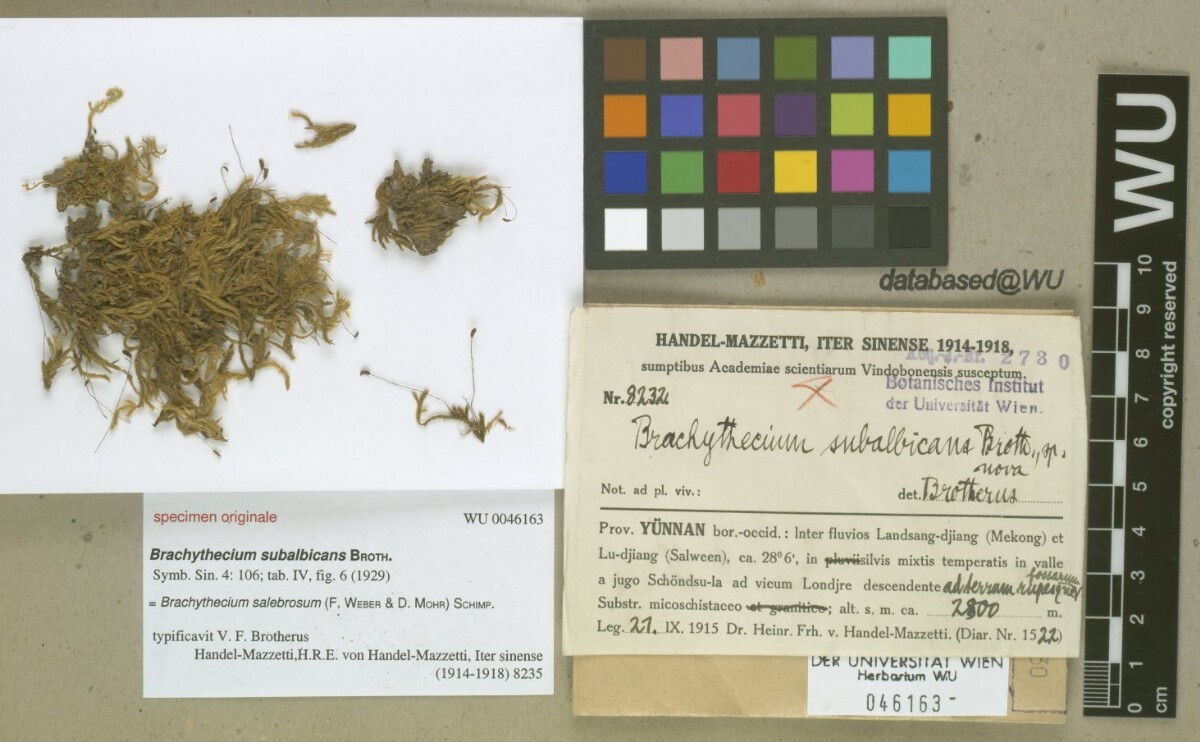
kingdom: Plantae
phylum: Bryophyta
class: Bryopsida
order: Hypnales
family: Brachytheciaceae
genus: Brachythecium
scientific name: Brachythecium salebrosum
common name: Smooth-stalk feather-moss
